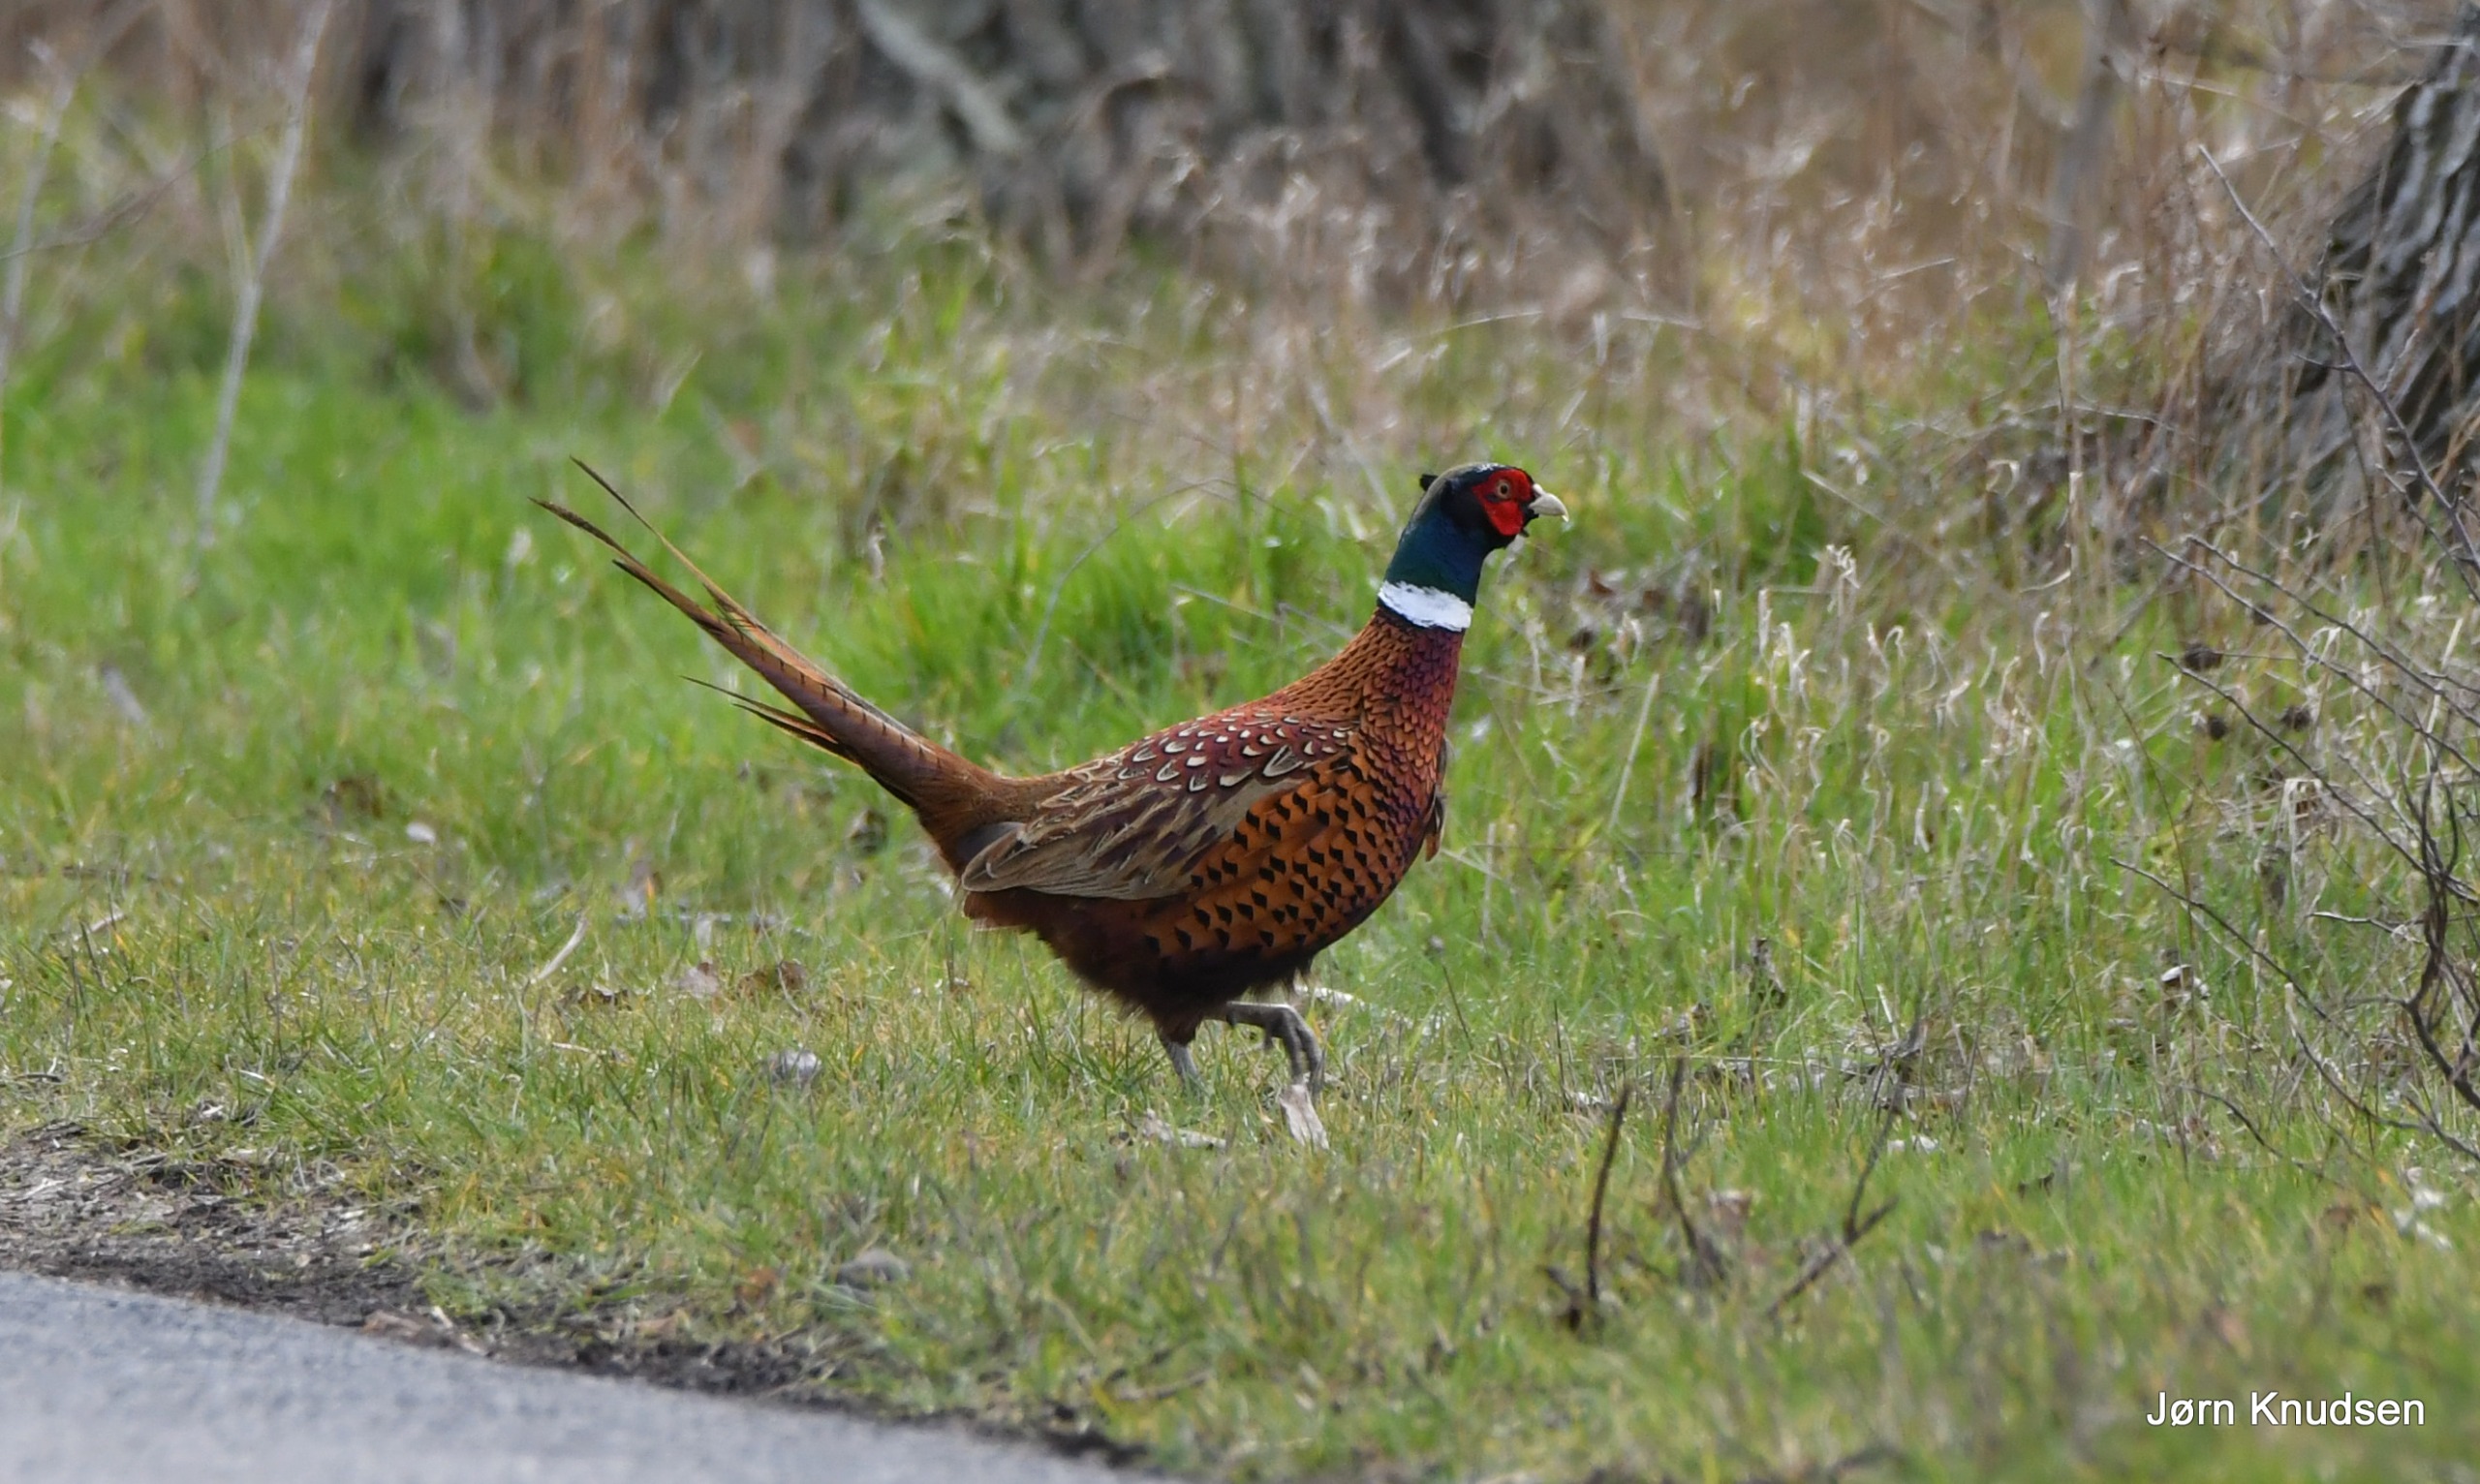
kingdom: Animalia
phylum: Chordata
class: Aves
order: Galliformes
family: Phasianidae
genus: Phasianus
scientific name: Phasianus colchicus
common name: Fasan
